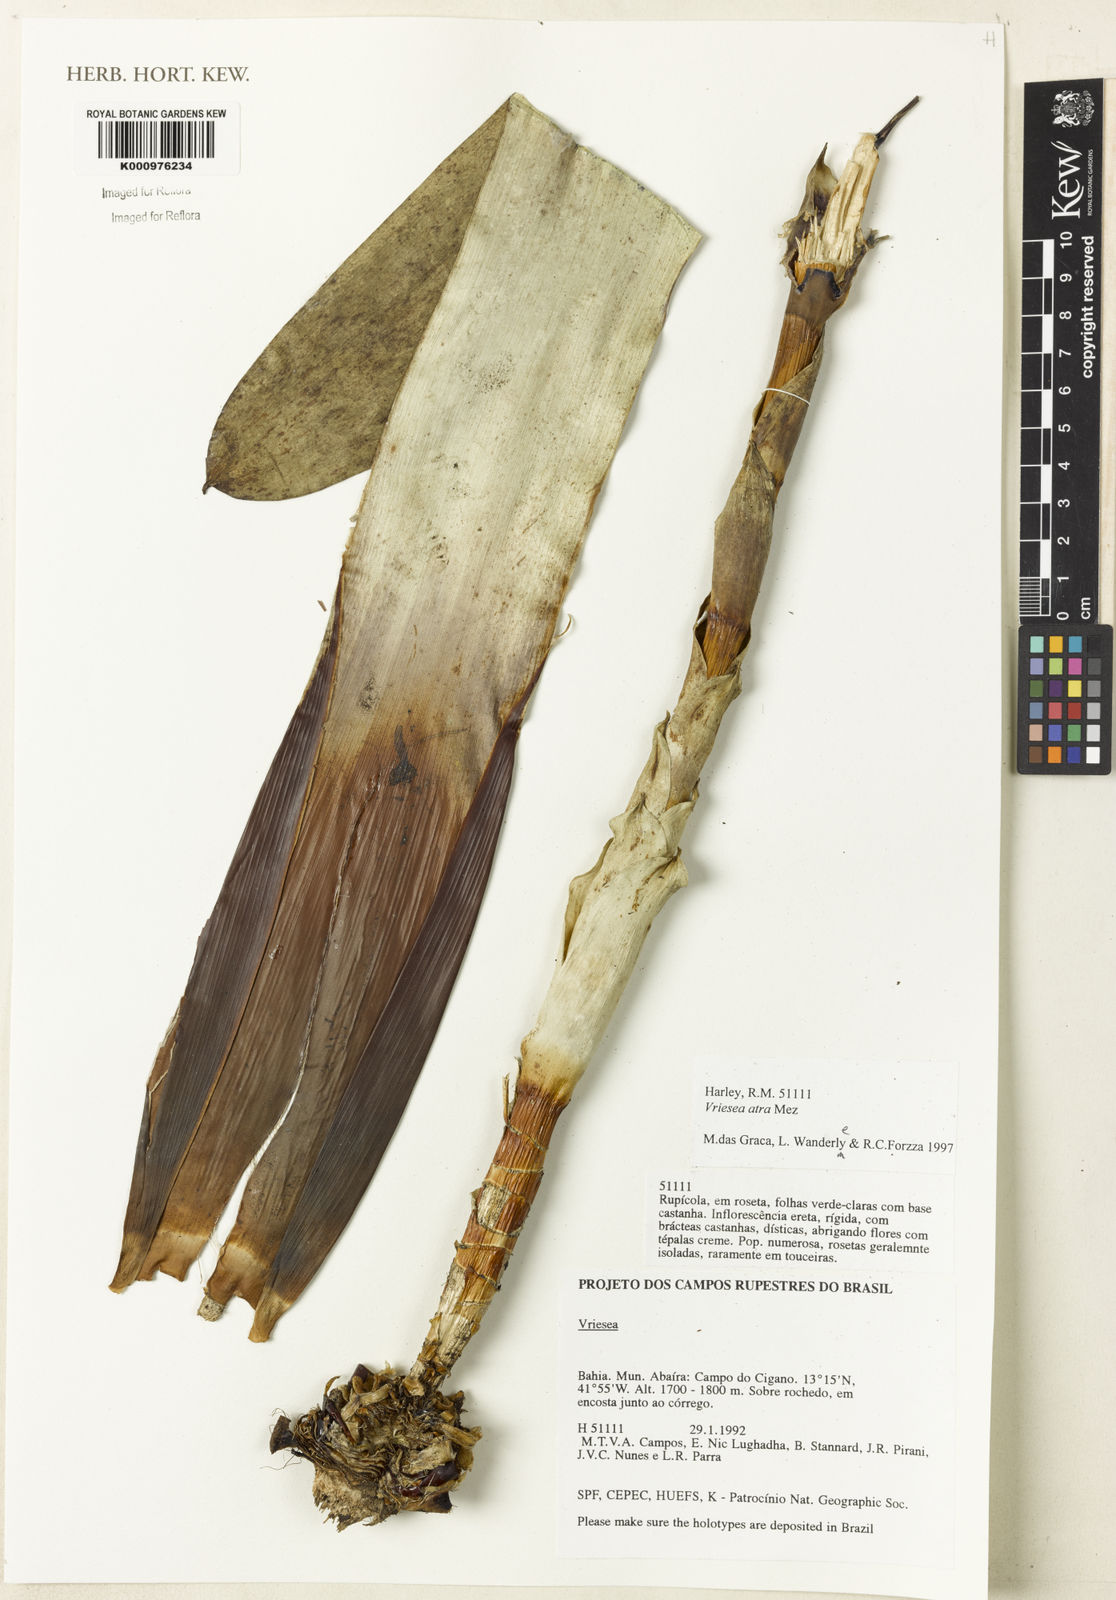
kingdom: Plantae
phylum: Tracheophyta
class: Liliopsida
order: Poales
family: Bromeliaceae
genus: Vriesea
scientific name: Vriesea atra
